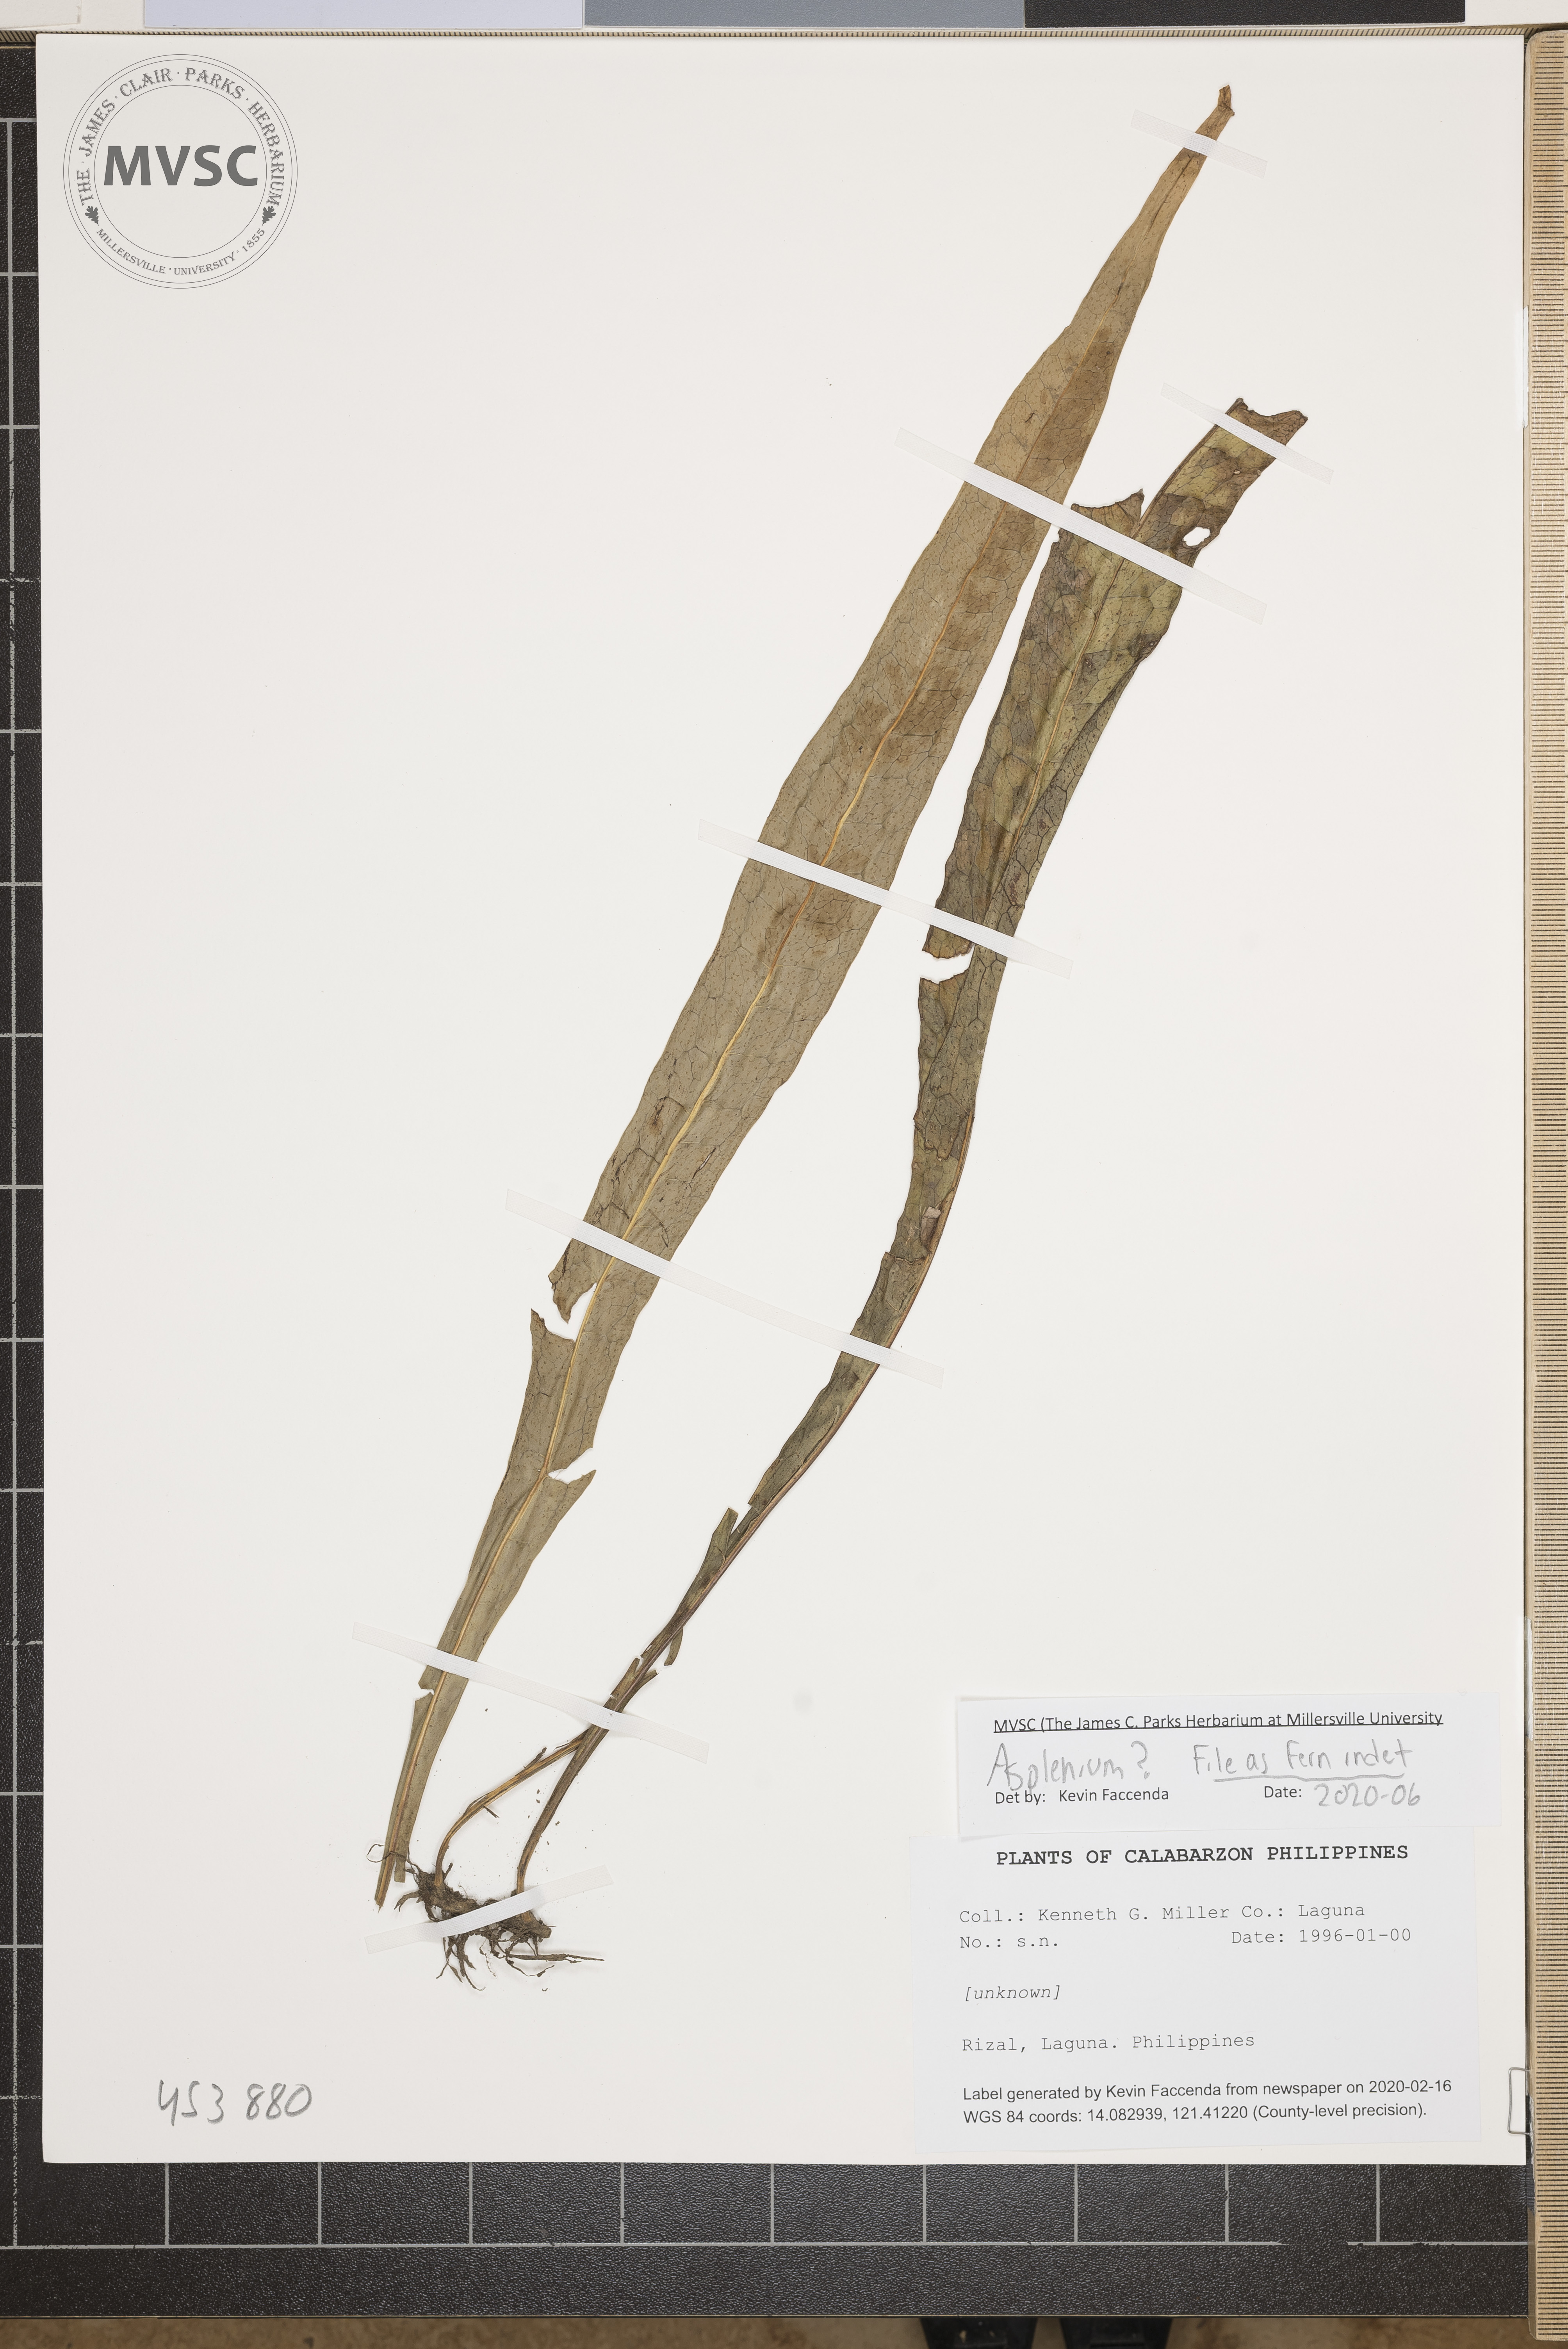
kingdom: Plantae
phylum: Tracheophyta
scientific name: Tracheophyta
